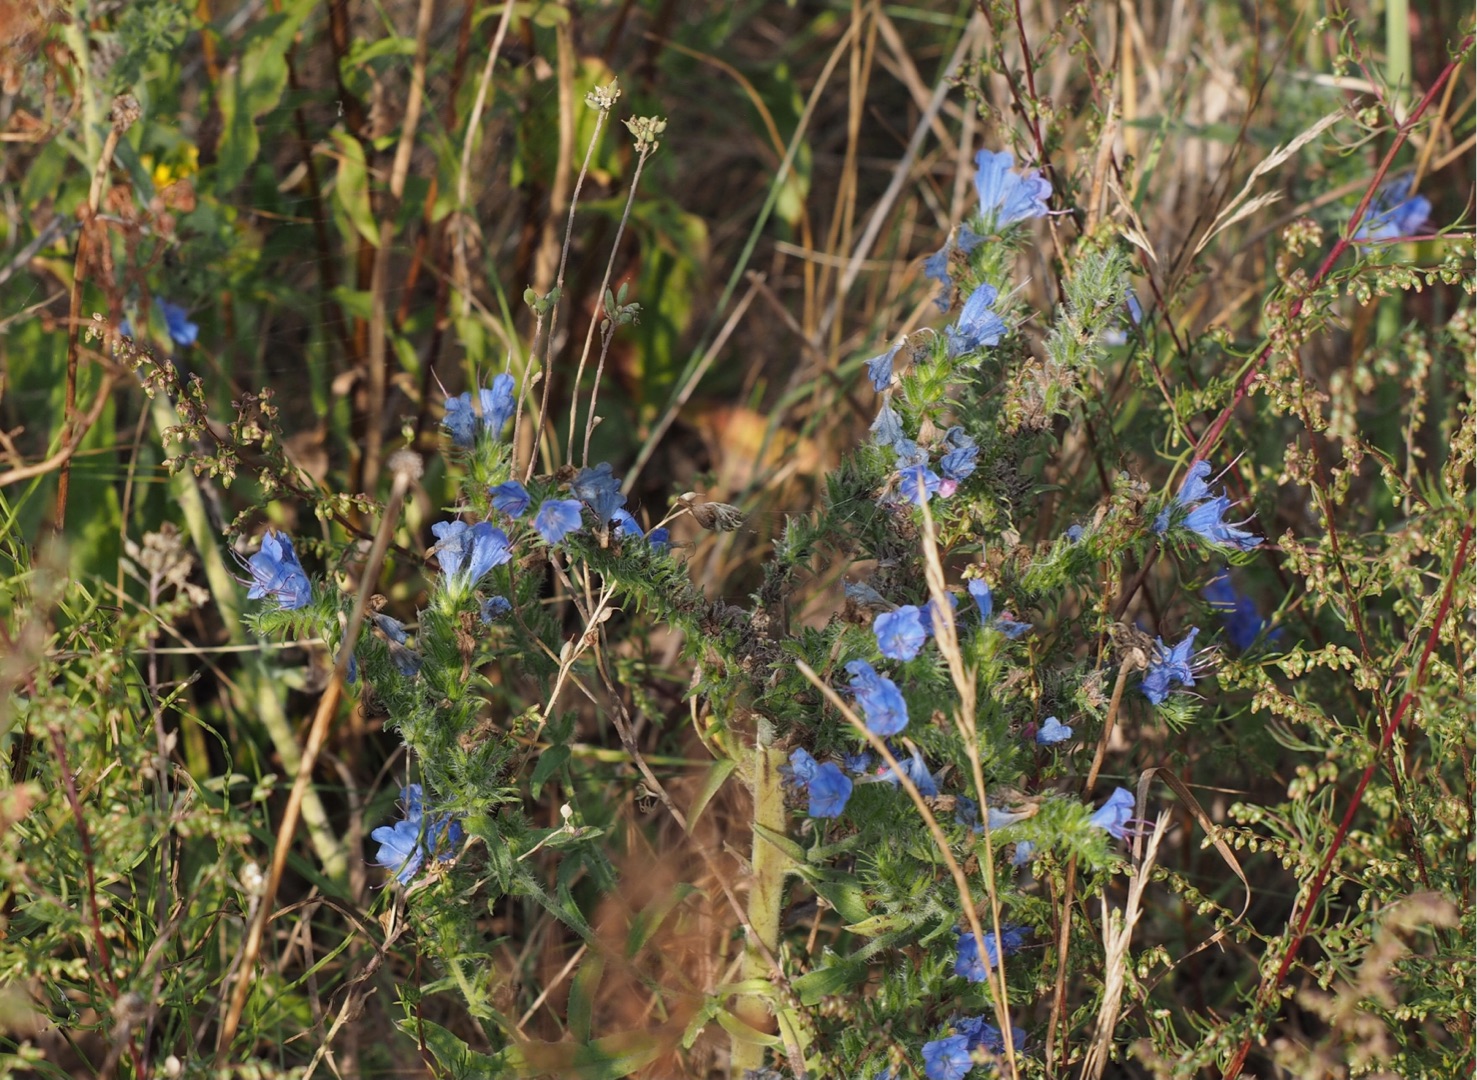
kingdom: Plantae
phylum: Tracheophyta
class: Magnoliopsida
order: Boraginales
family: Boraginaceae
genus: Echium
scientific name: Echium vulgare
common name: Slangehoved
